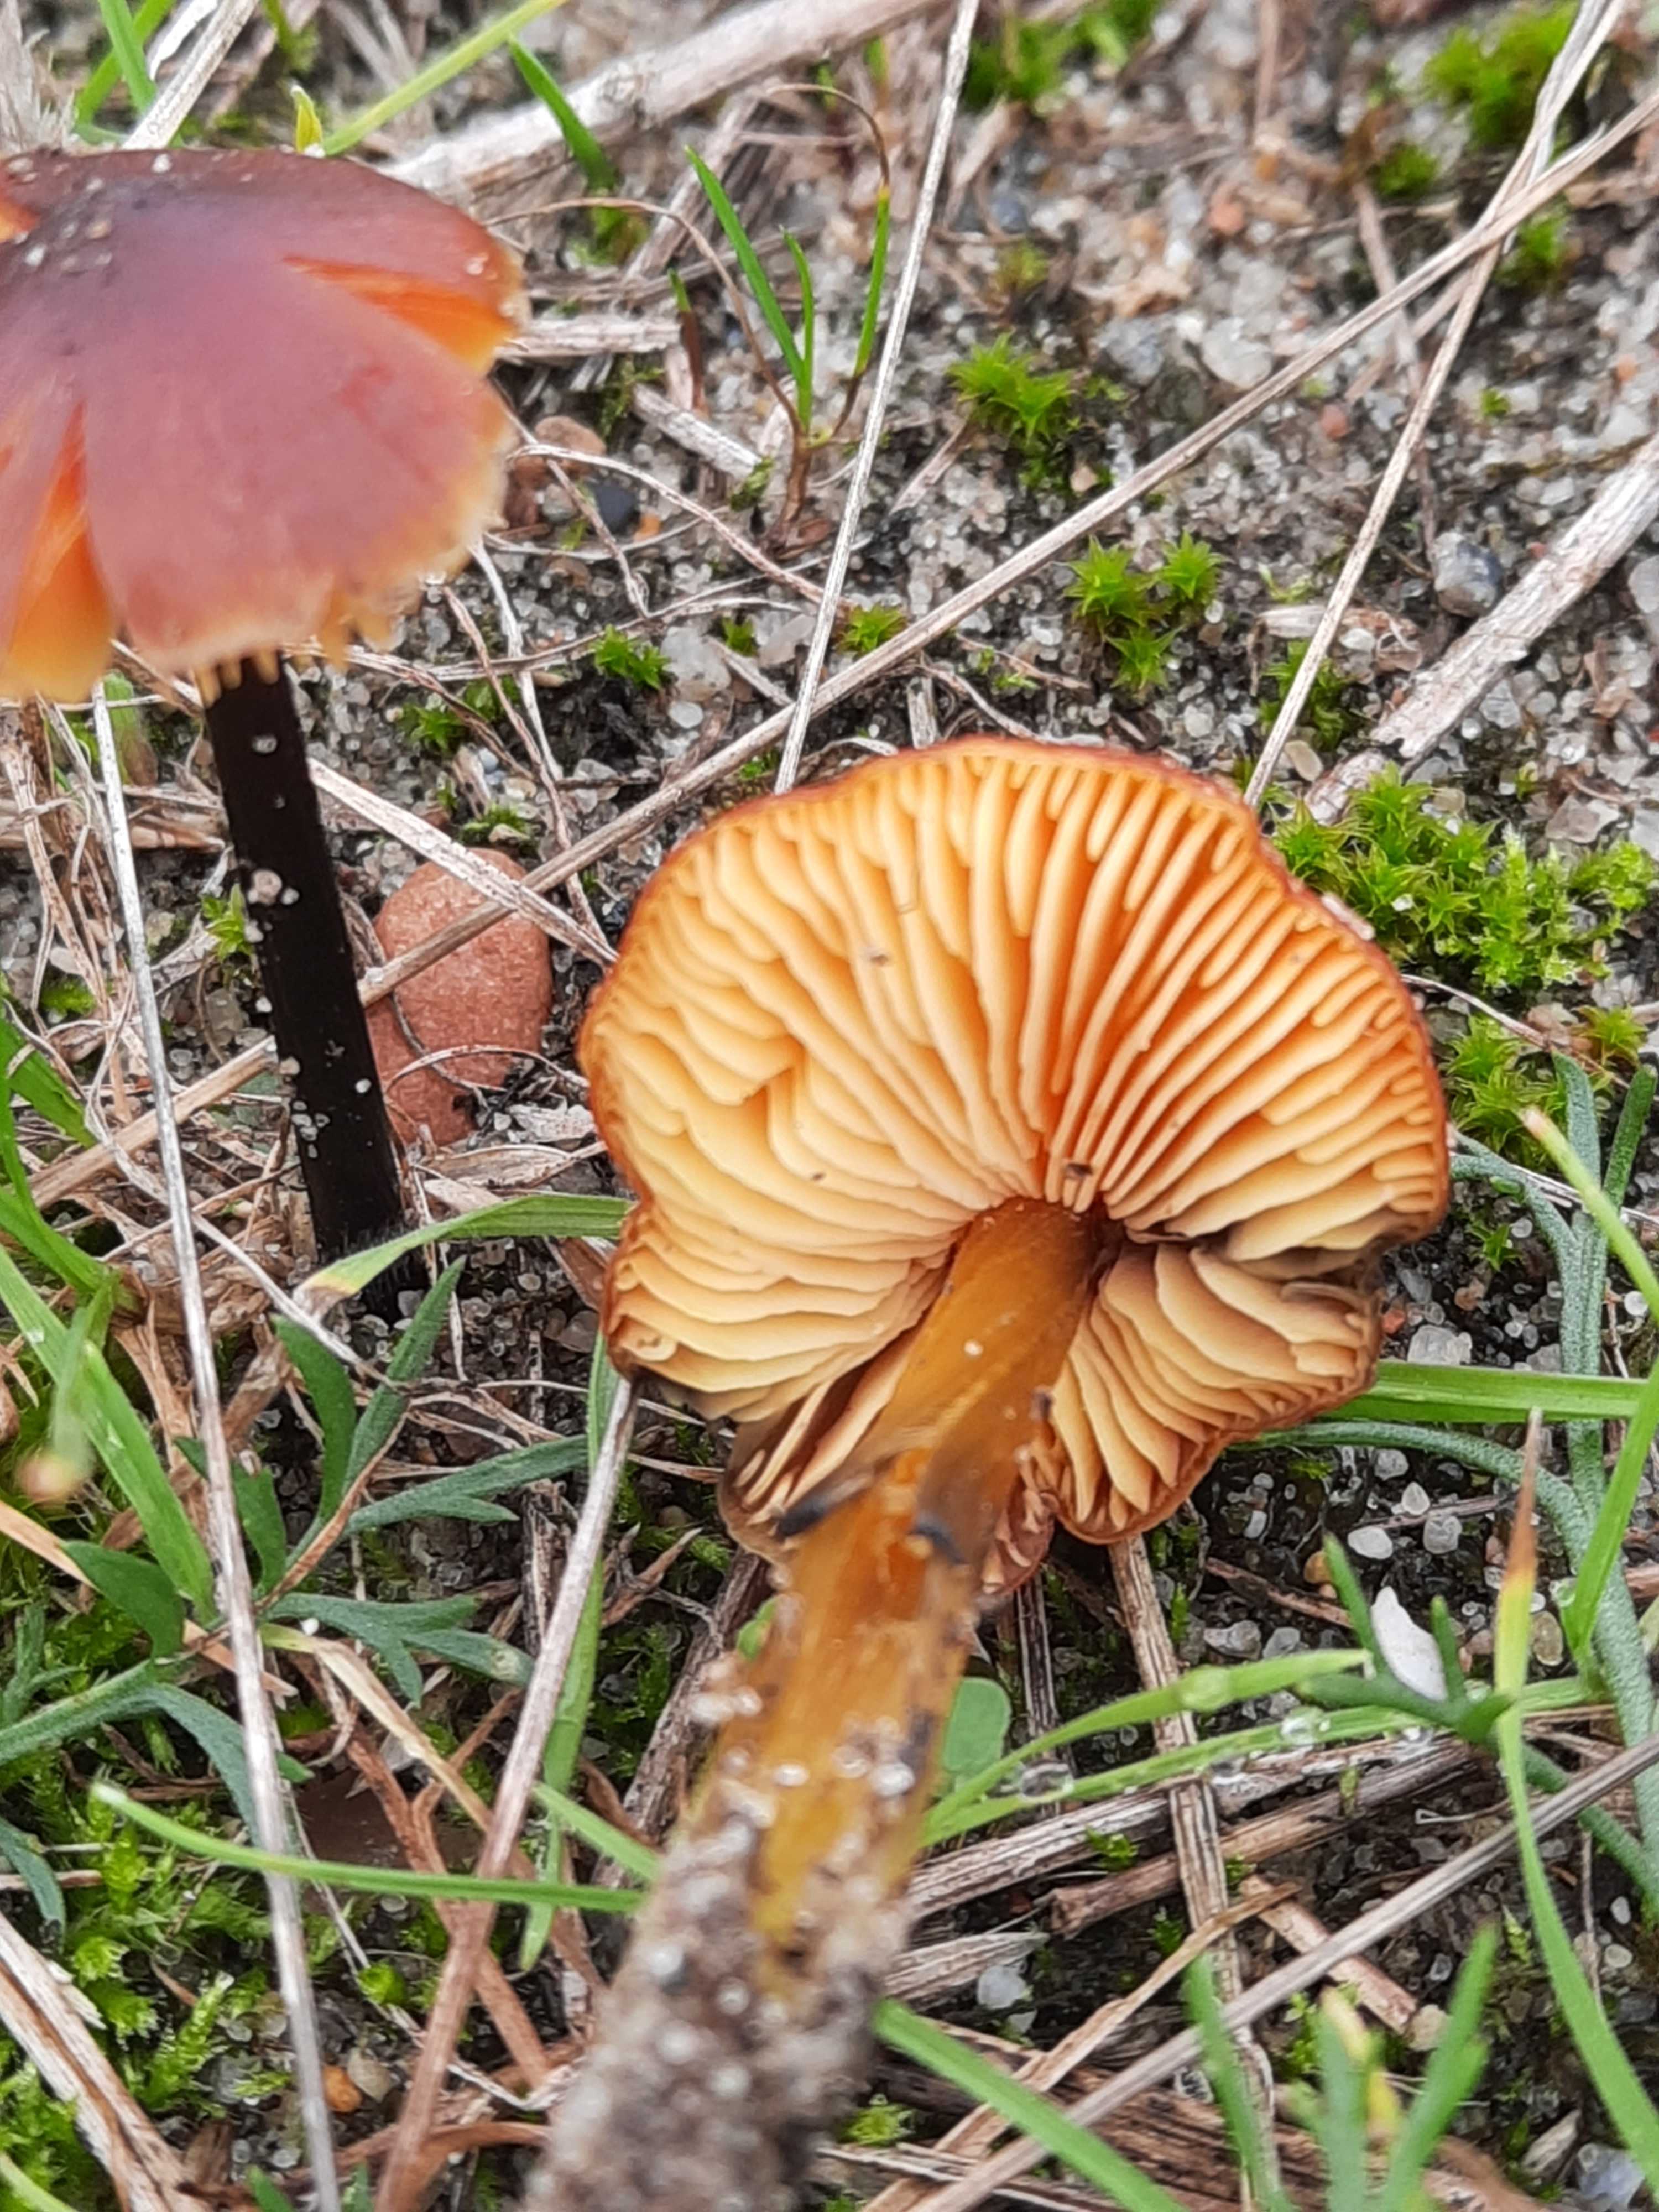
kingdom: Fungi
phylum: Basidiomycota
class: Agaricomycetes
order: Agaricales
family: Hygrophoraceae
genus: Hygrocybe
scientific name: Hygrocybe conica
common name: kegle-vokshat
